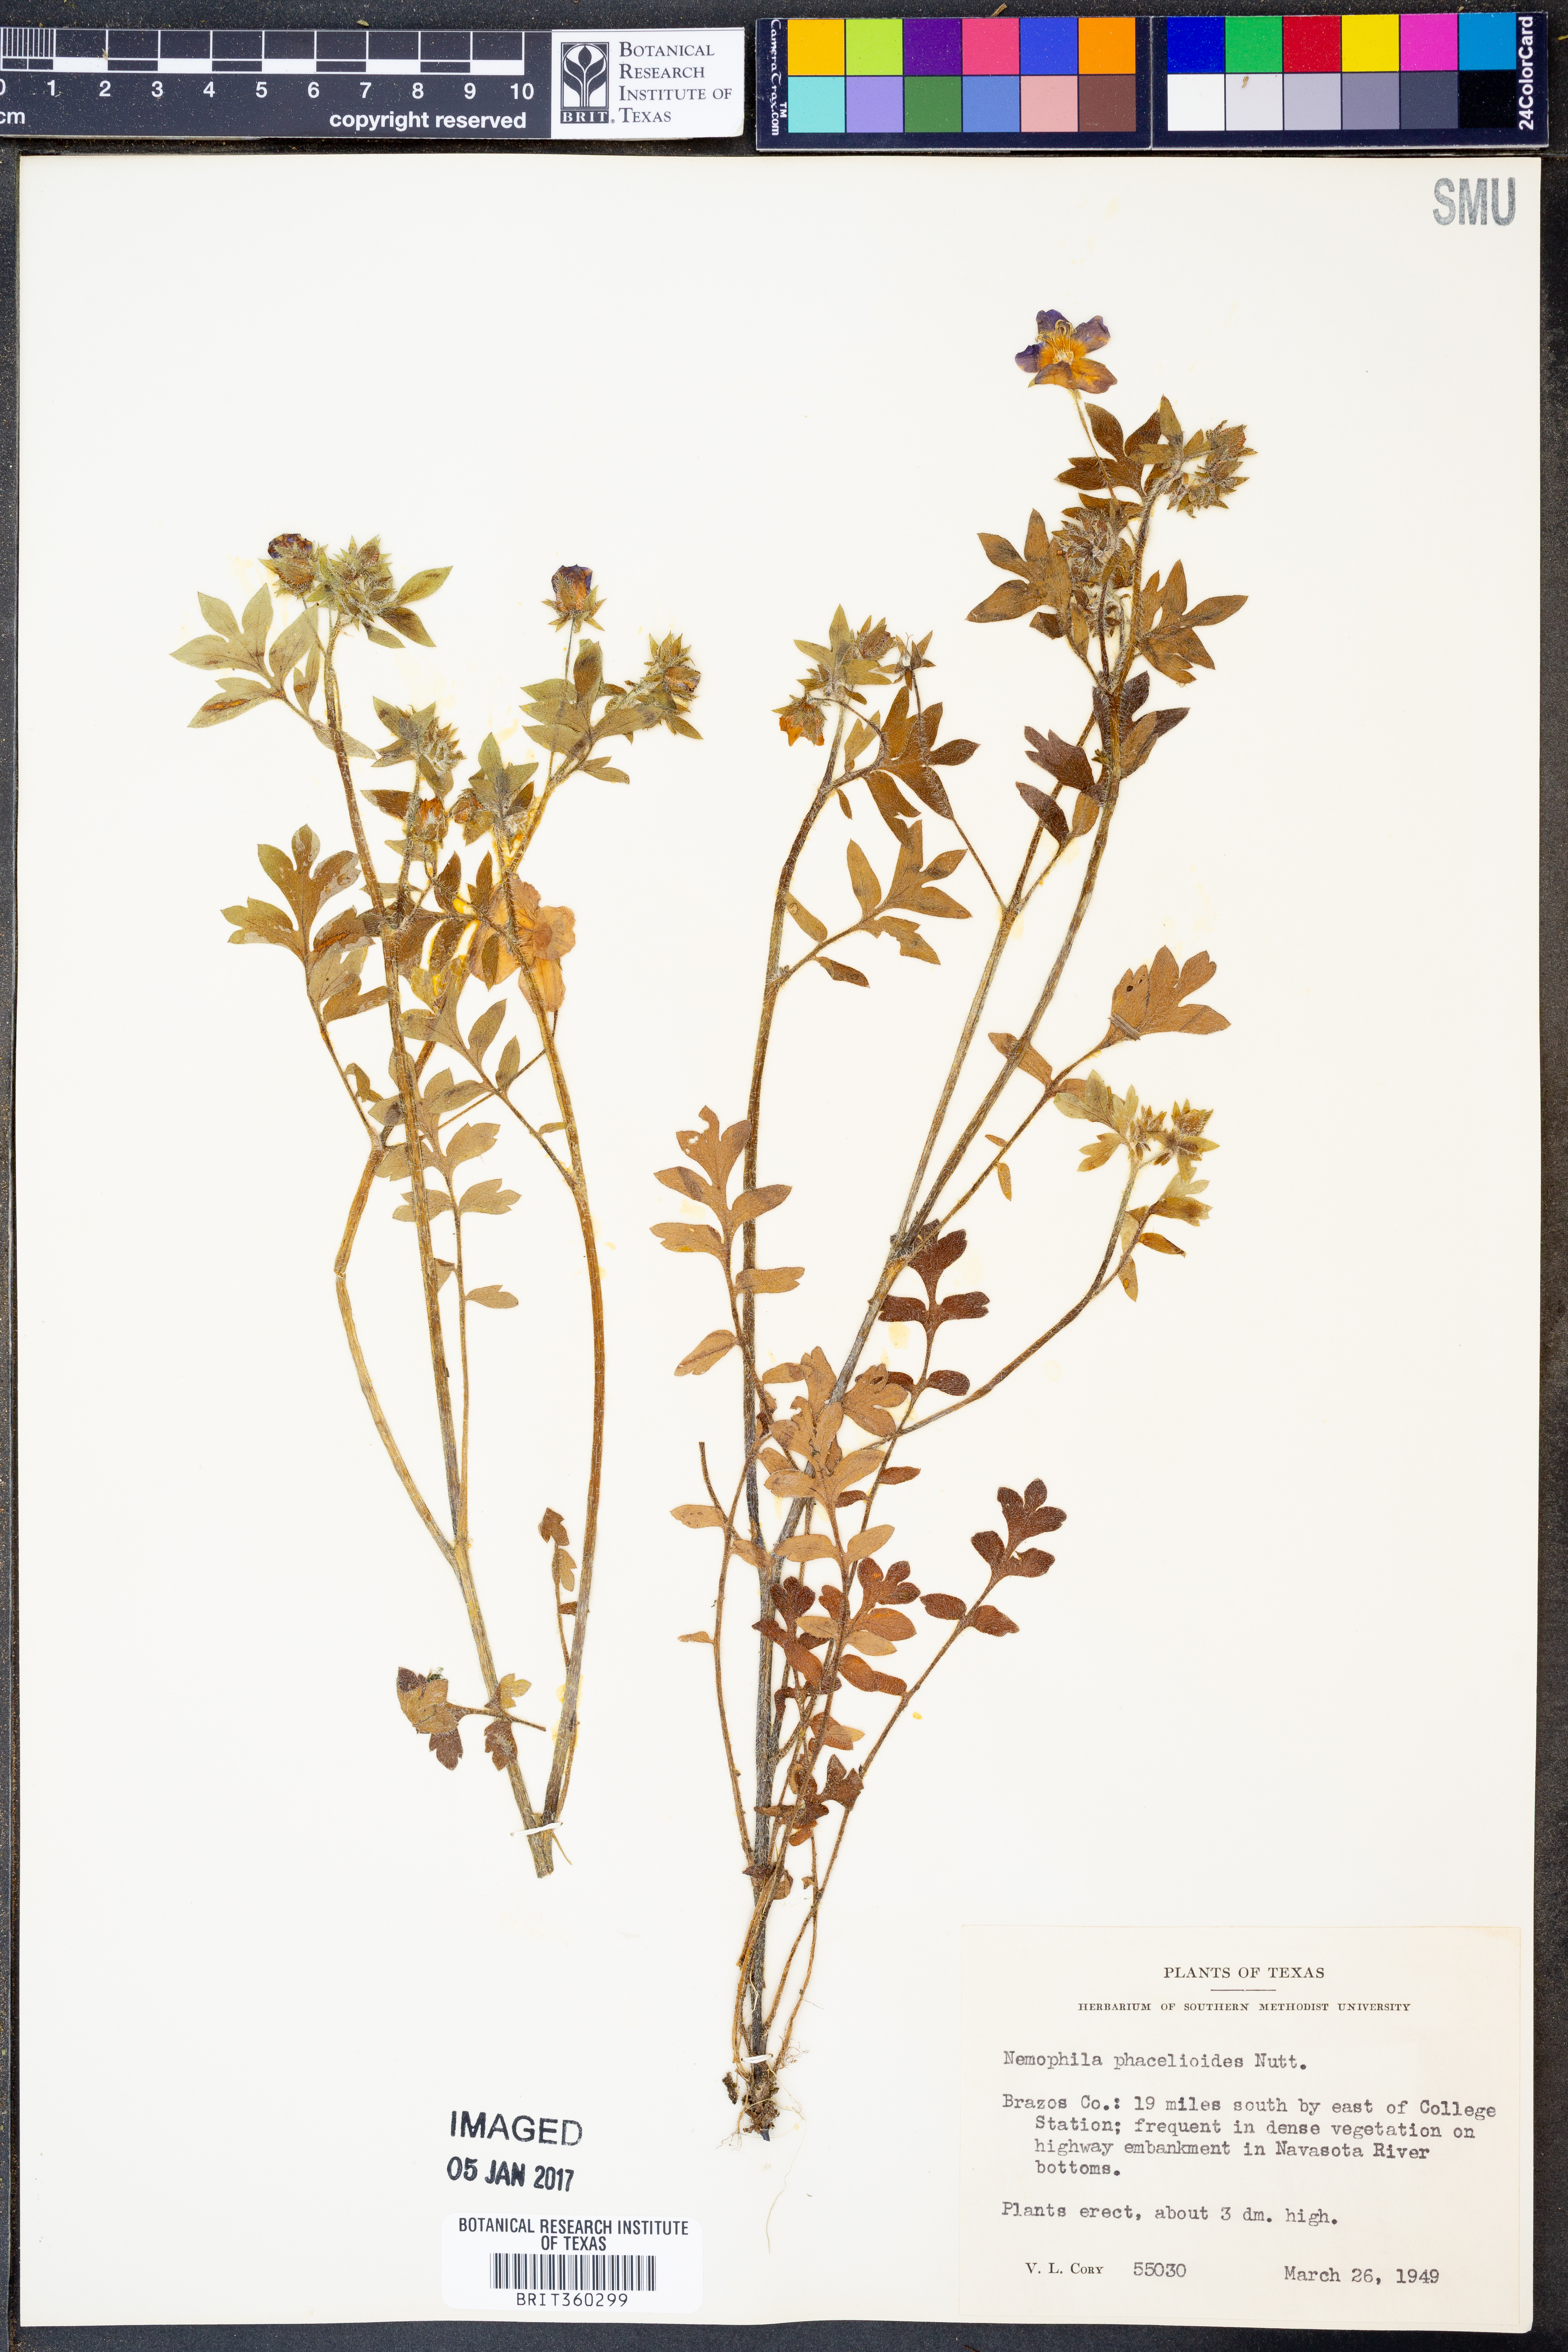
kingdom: Plantae
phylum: Tracheophyta
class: Magnoliopsida
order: Boraginales
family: Hydrophyllaceae
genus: Nemophila
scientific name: Nemophila phacelioides
